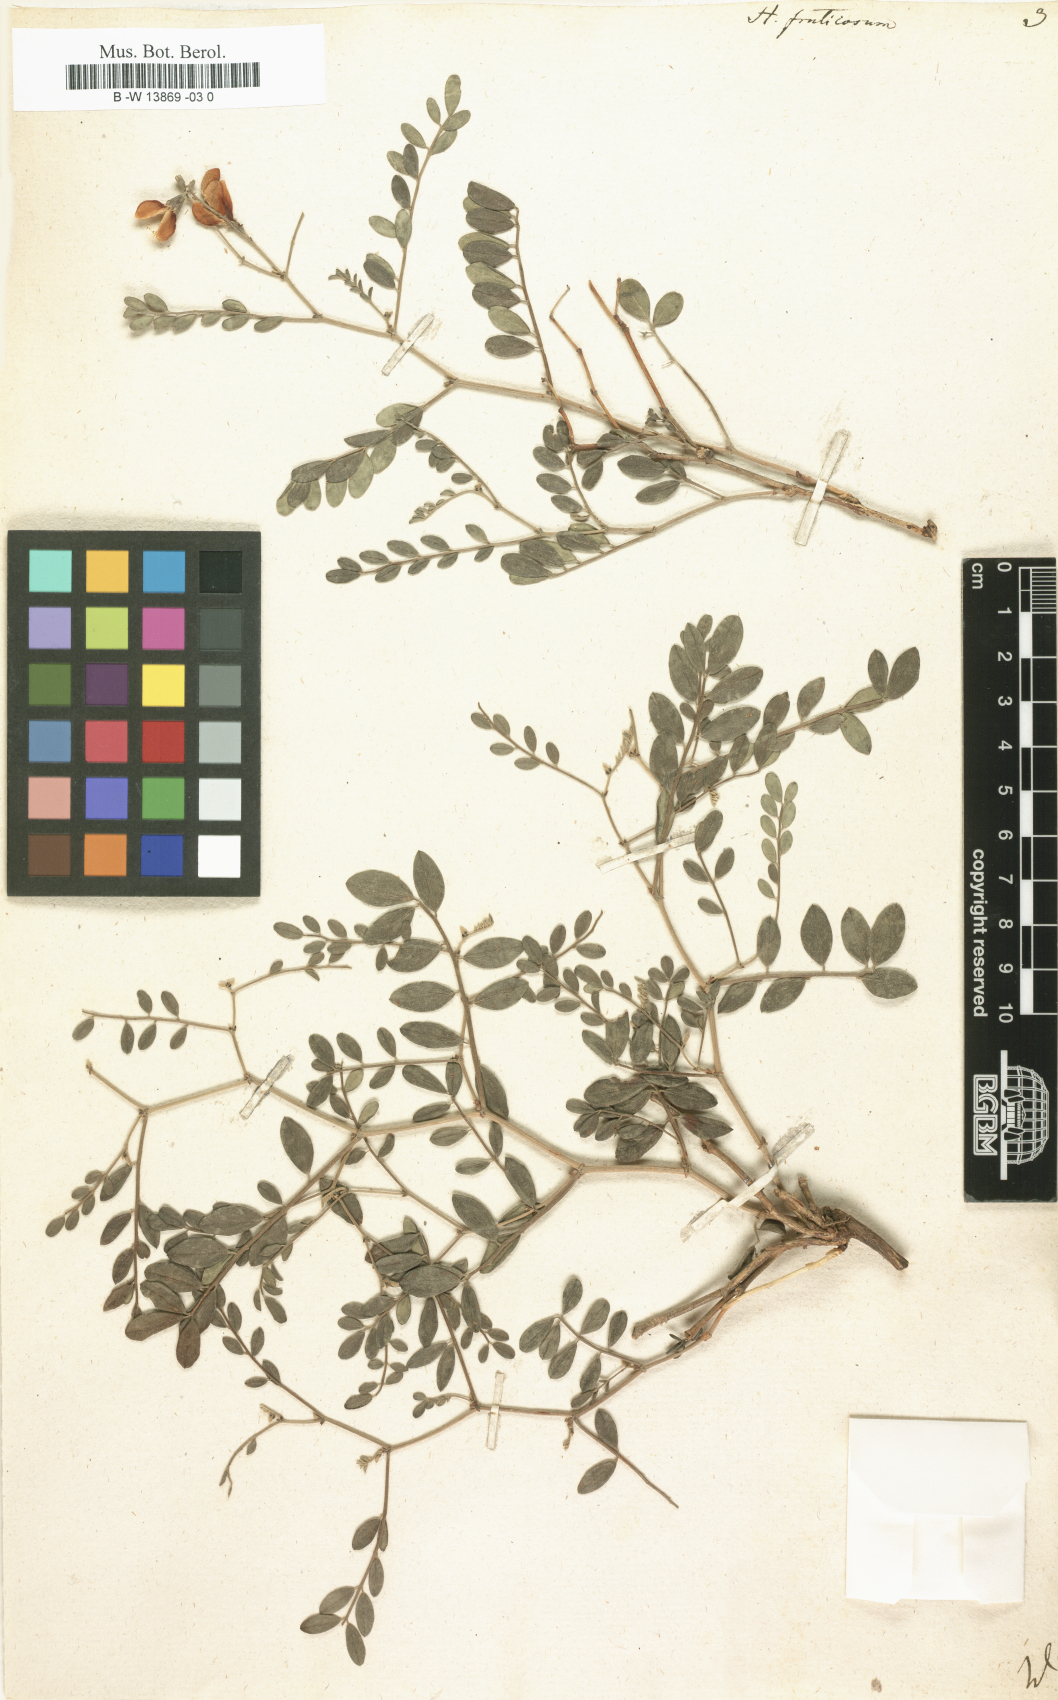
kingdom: Plantae
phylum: Tracheophyta
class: Magnoliopsida
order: Fabales
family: Fabaceae
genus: Corethrodendron
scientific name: Corethrodendron fruticosum
